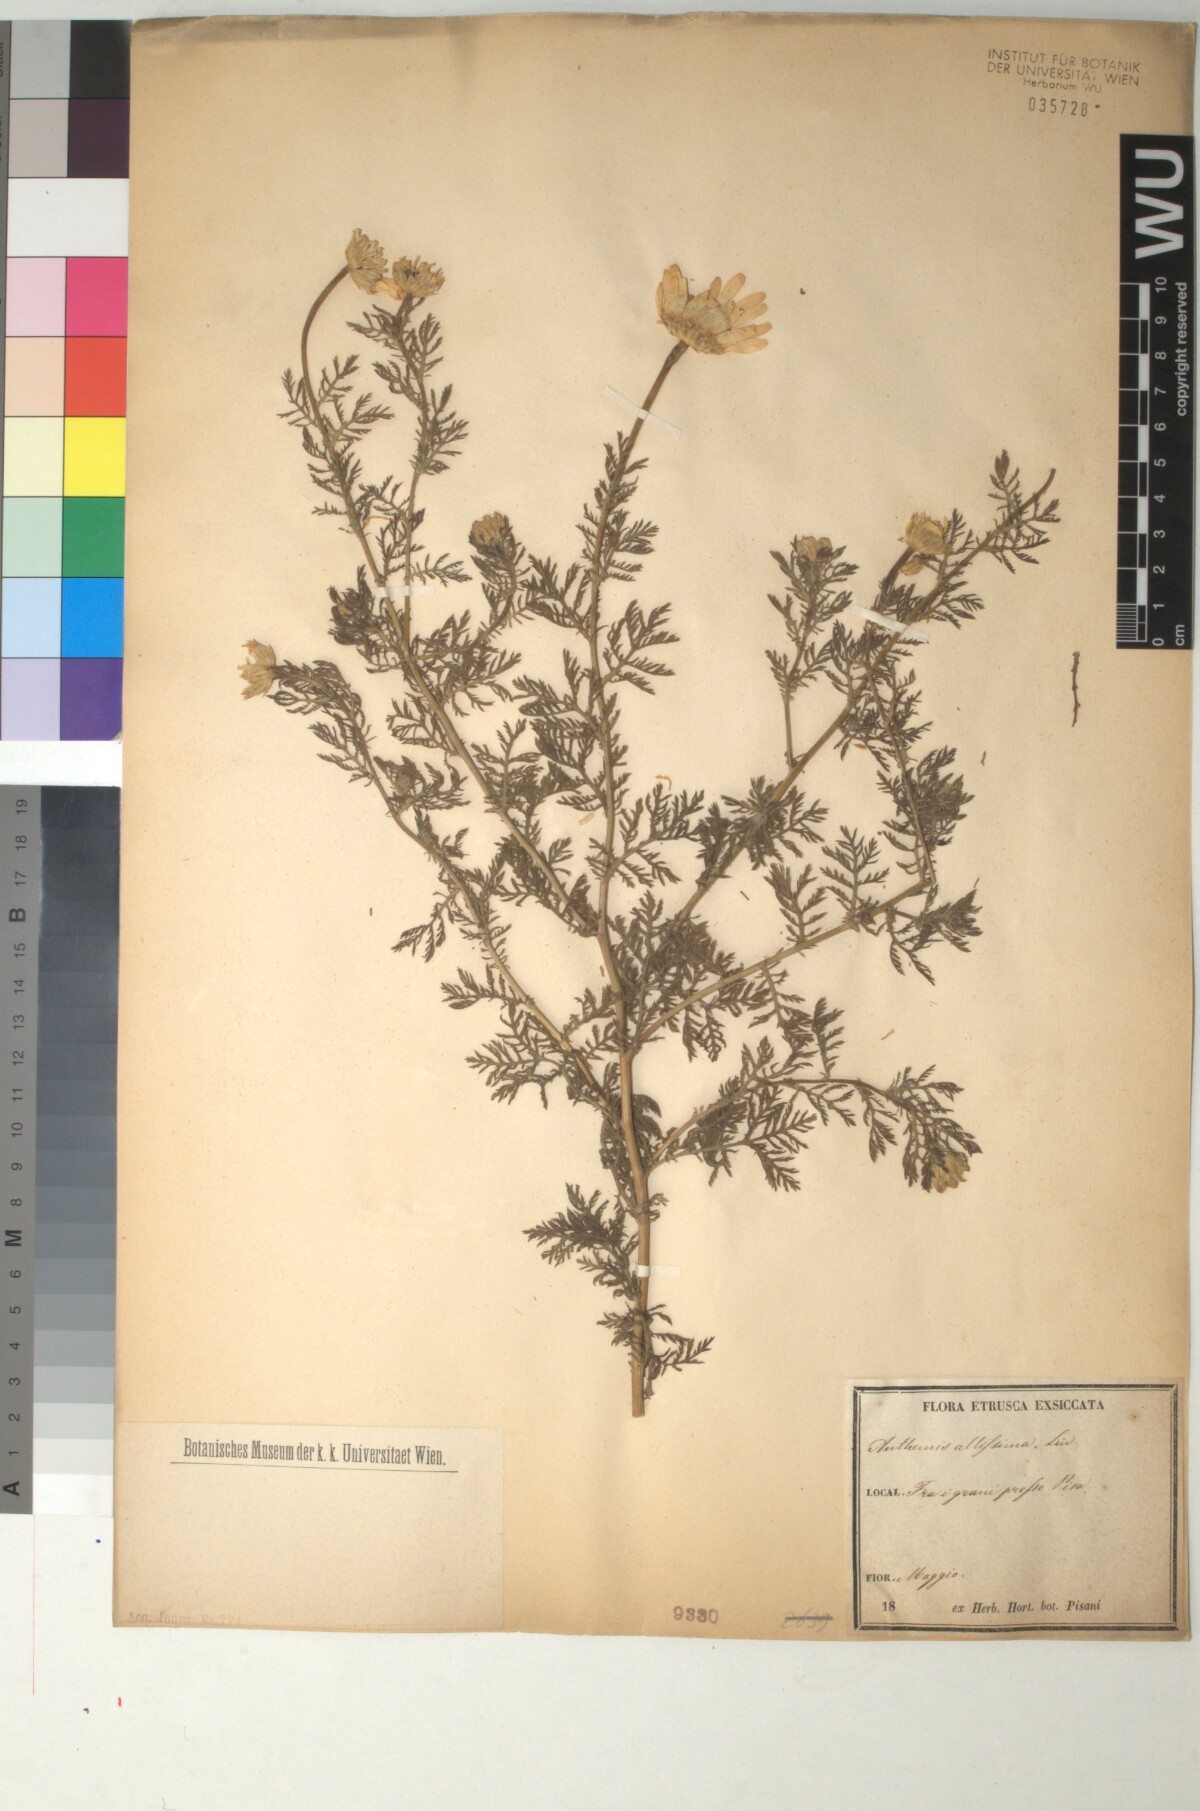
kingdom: Plantae
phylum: Tracheophyta
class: Magnoliopsida
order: Asterales
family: Asteraceae
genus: Cota
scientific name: Cota altissima
